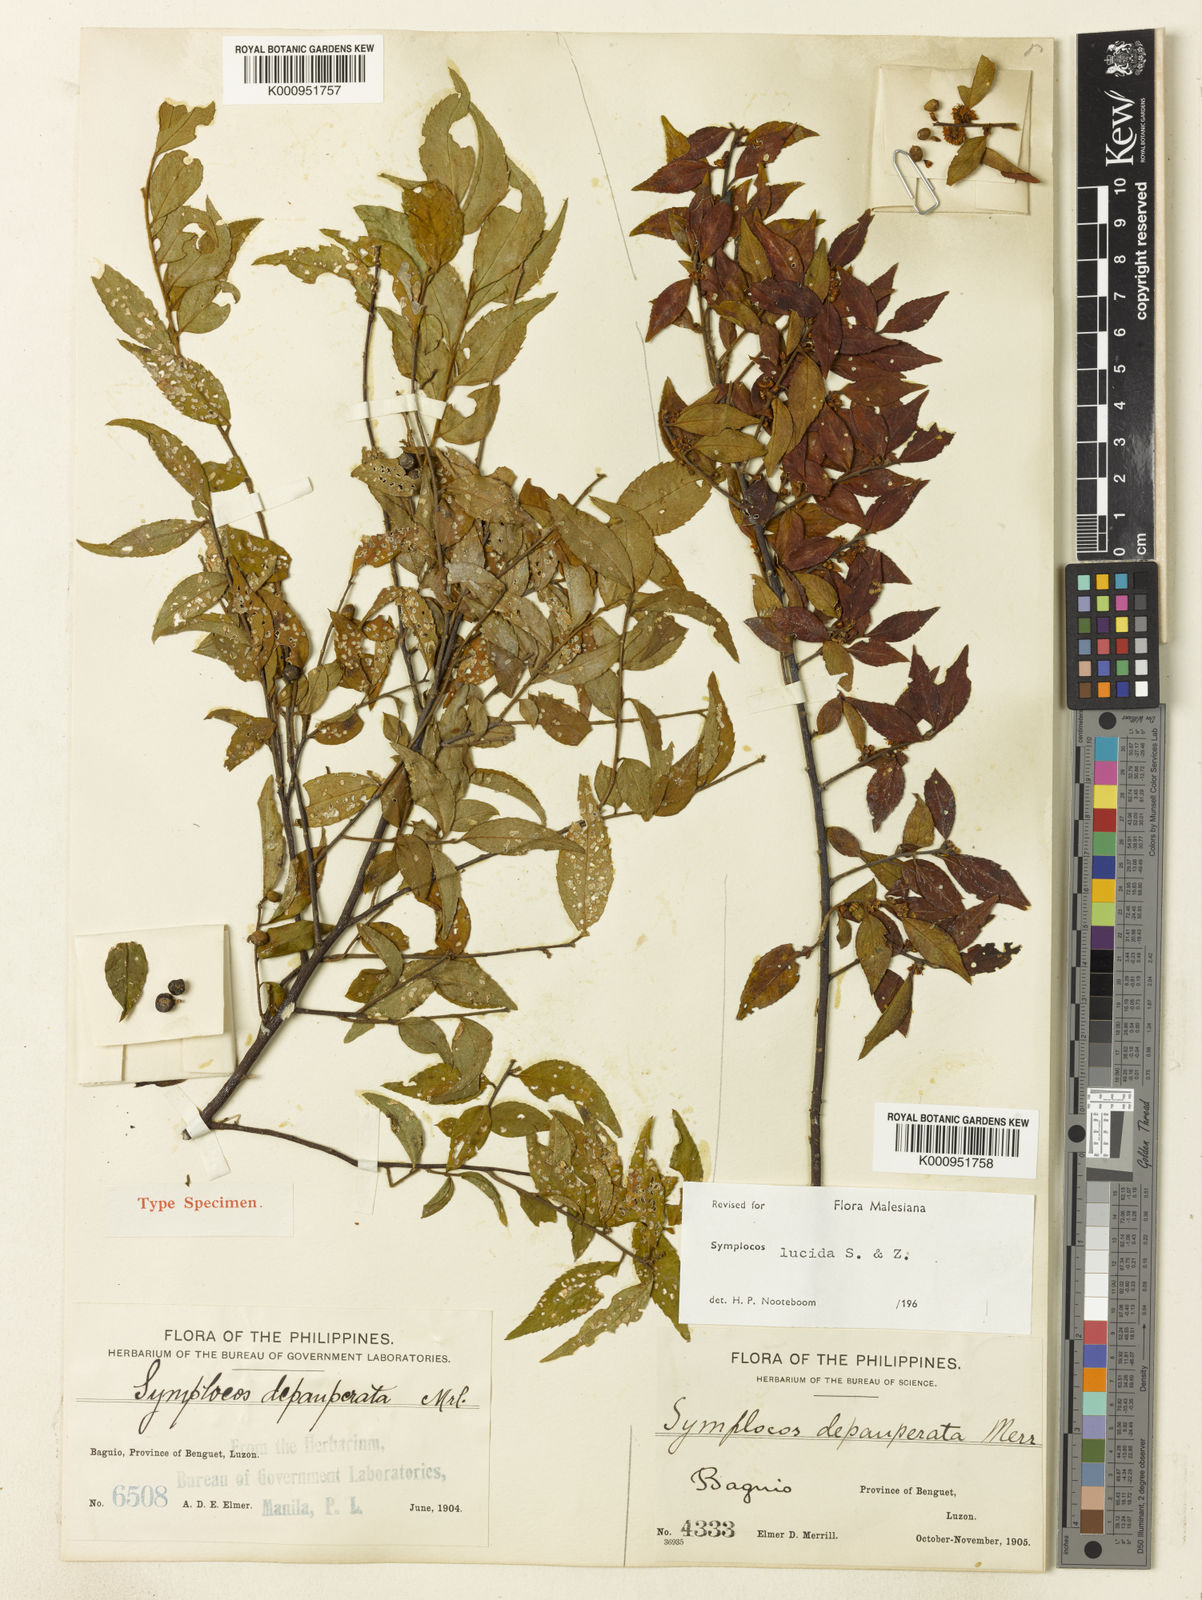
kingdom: Plantae
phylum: Tracheophyta
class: Magnoliopsida
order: Ericales
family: Symplocaceae
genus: Symplocos
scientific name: Symplocos lancifolia
